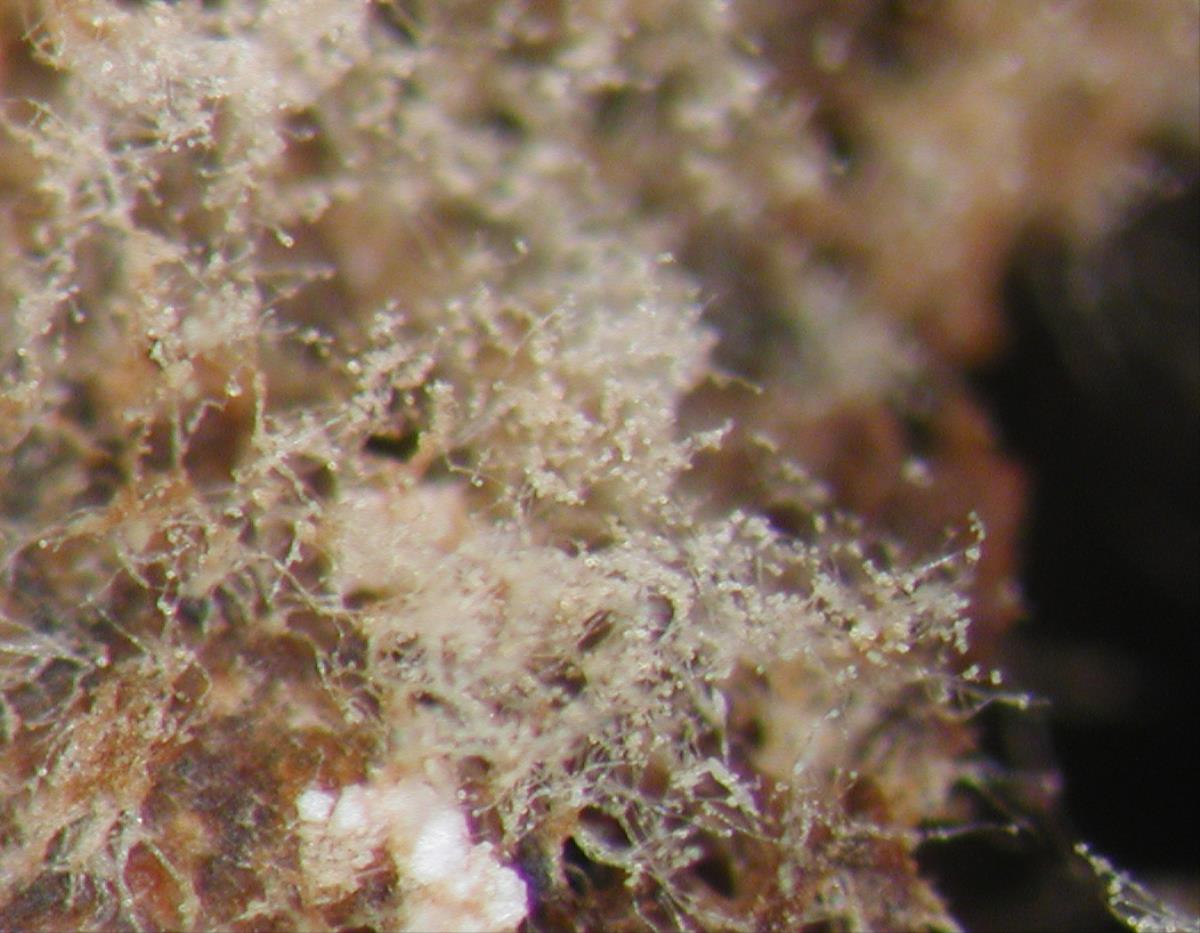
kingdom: Fungi
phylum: Ascomycota
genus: Rhinotrichella
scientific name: Rhinotrichella globulifera
